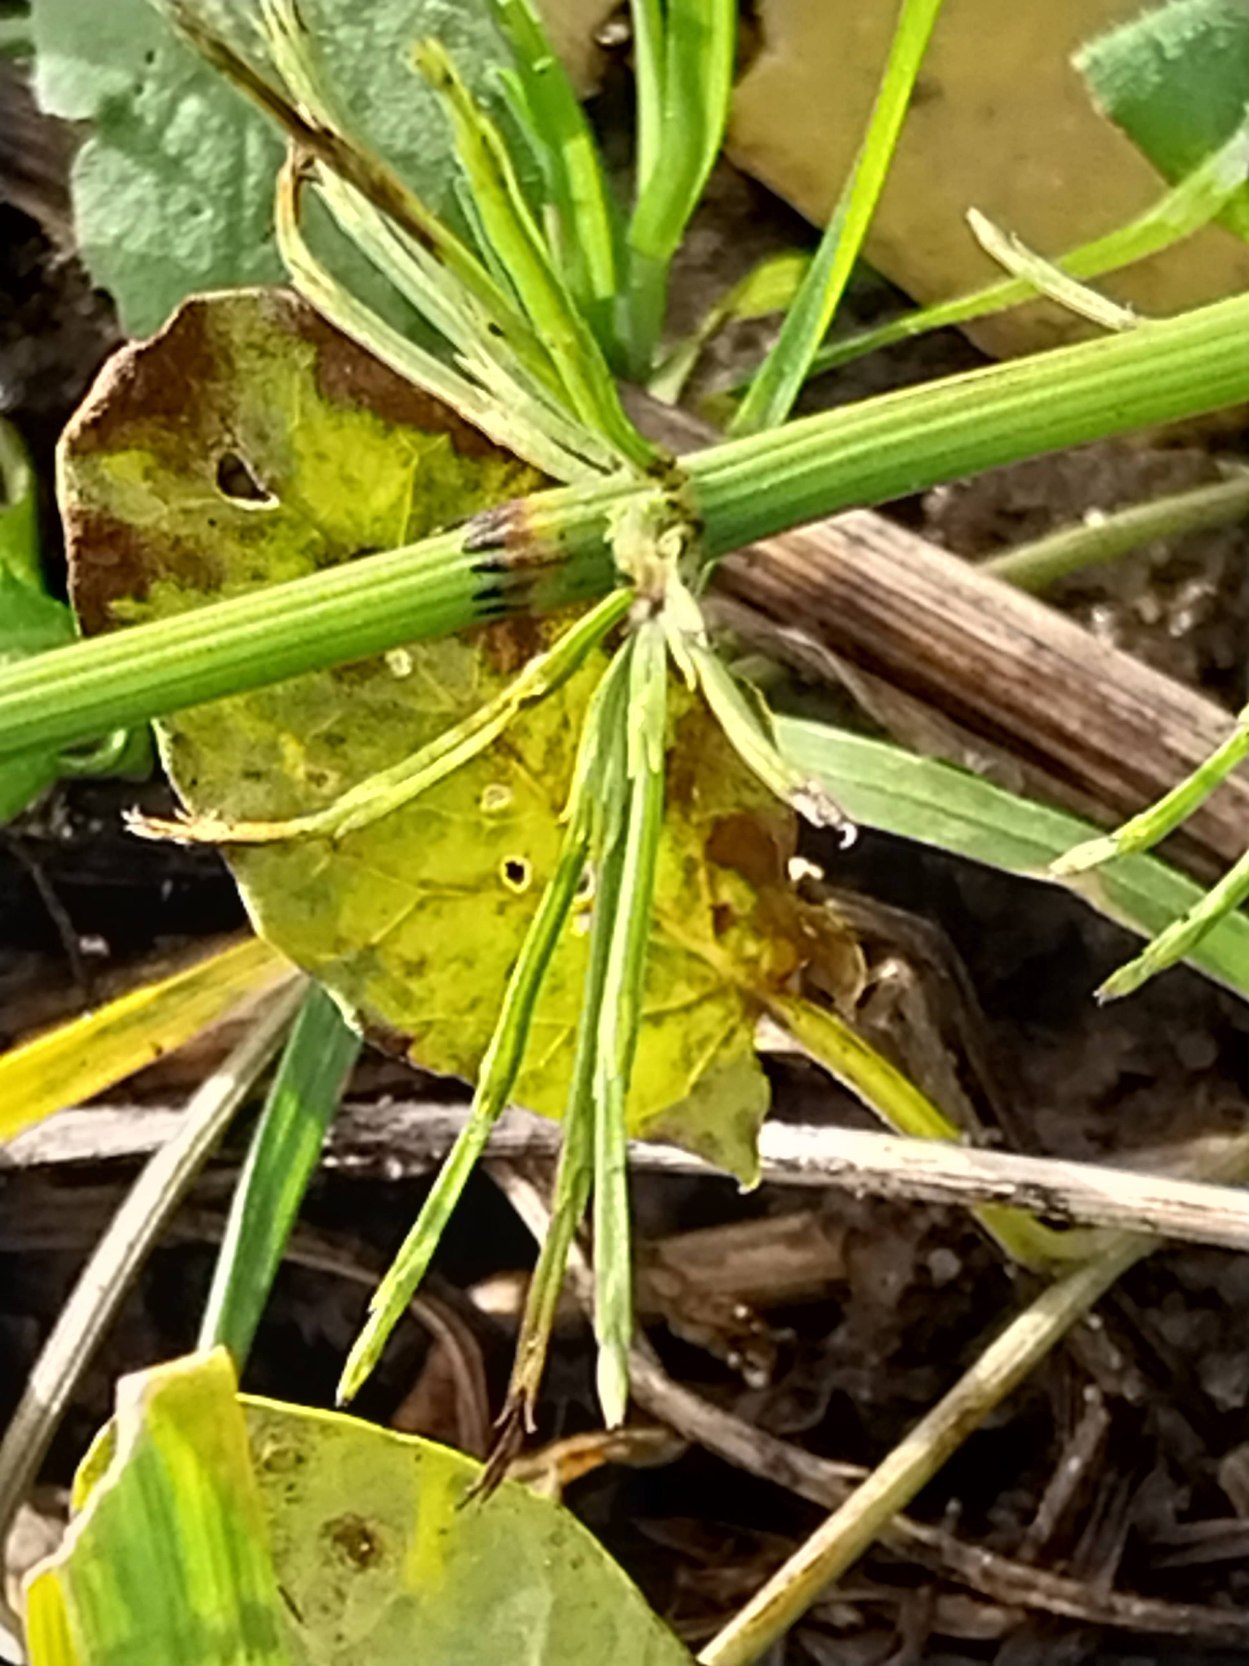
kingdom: Plantae
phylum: Tracheophyta
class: Polypodiopsida
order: Equisetales
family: Equisetaceae
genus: Equisetum
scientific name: Equisetum arvense
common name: Ager-padderok
